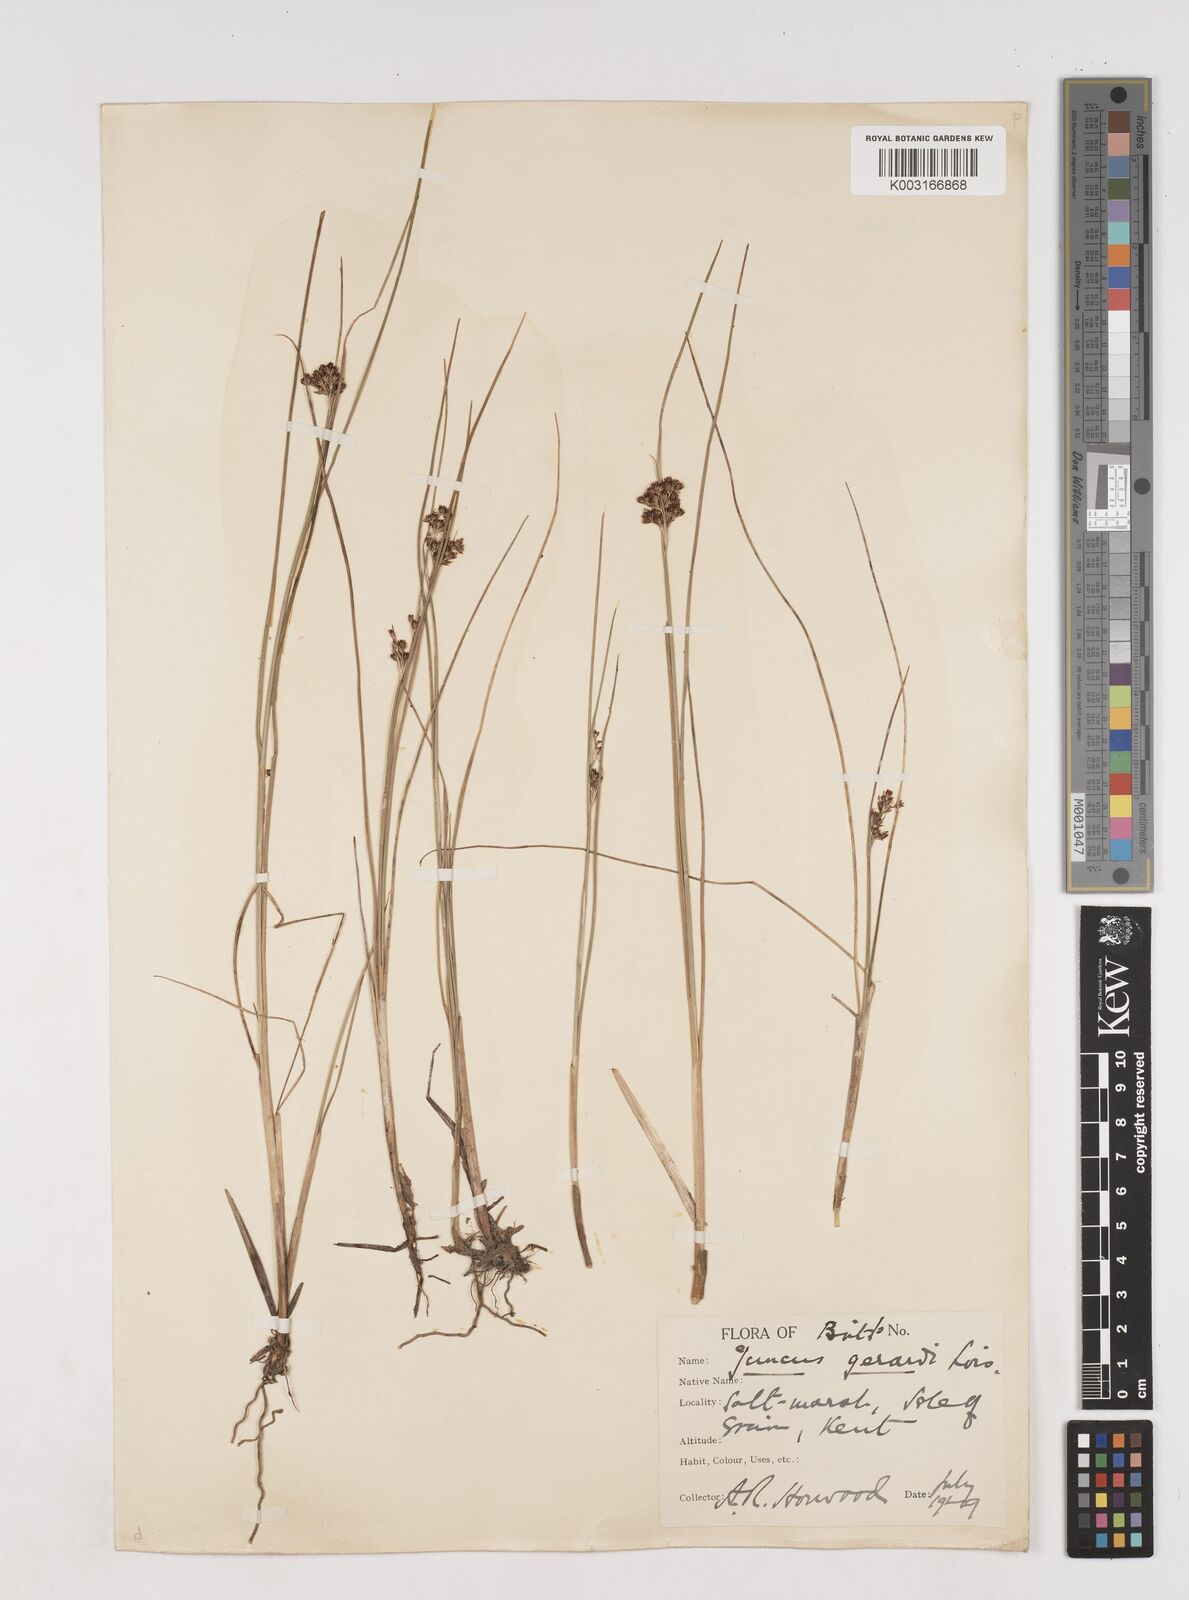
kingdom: Plantae
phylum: Tracheophyta
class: Liliopsida
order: Poales
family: Juncaceae
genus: Juncus
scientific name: Juncus gerardi
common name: Saltmarsh rush
